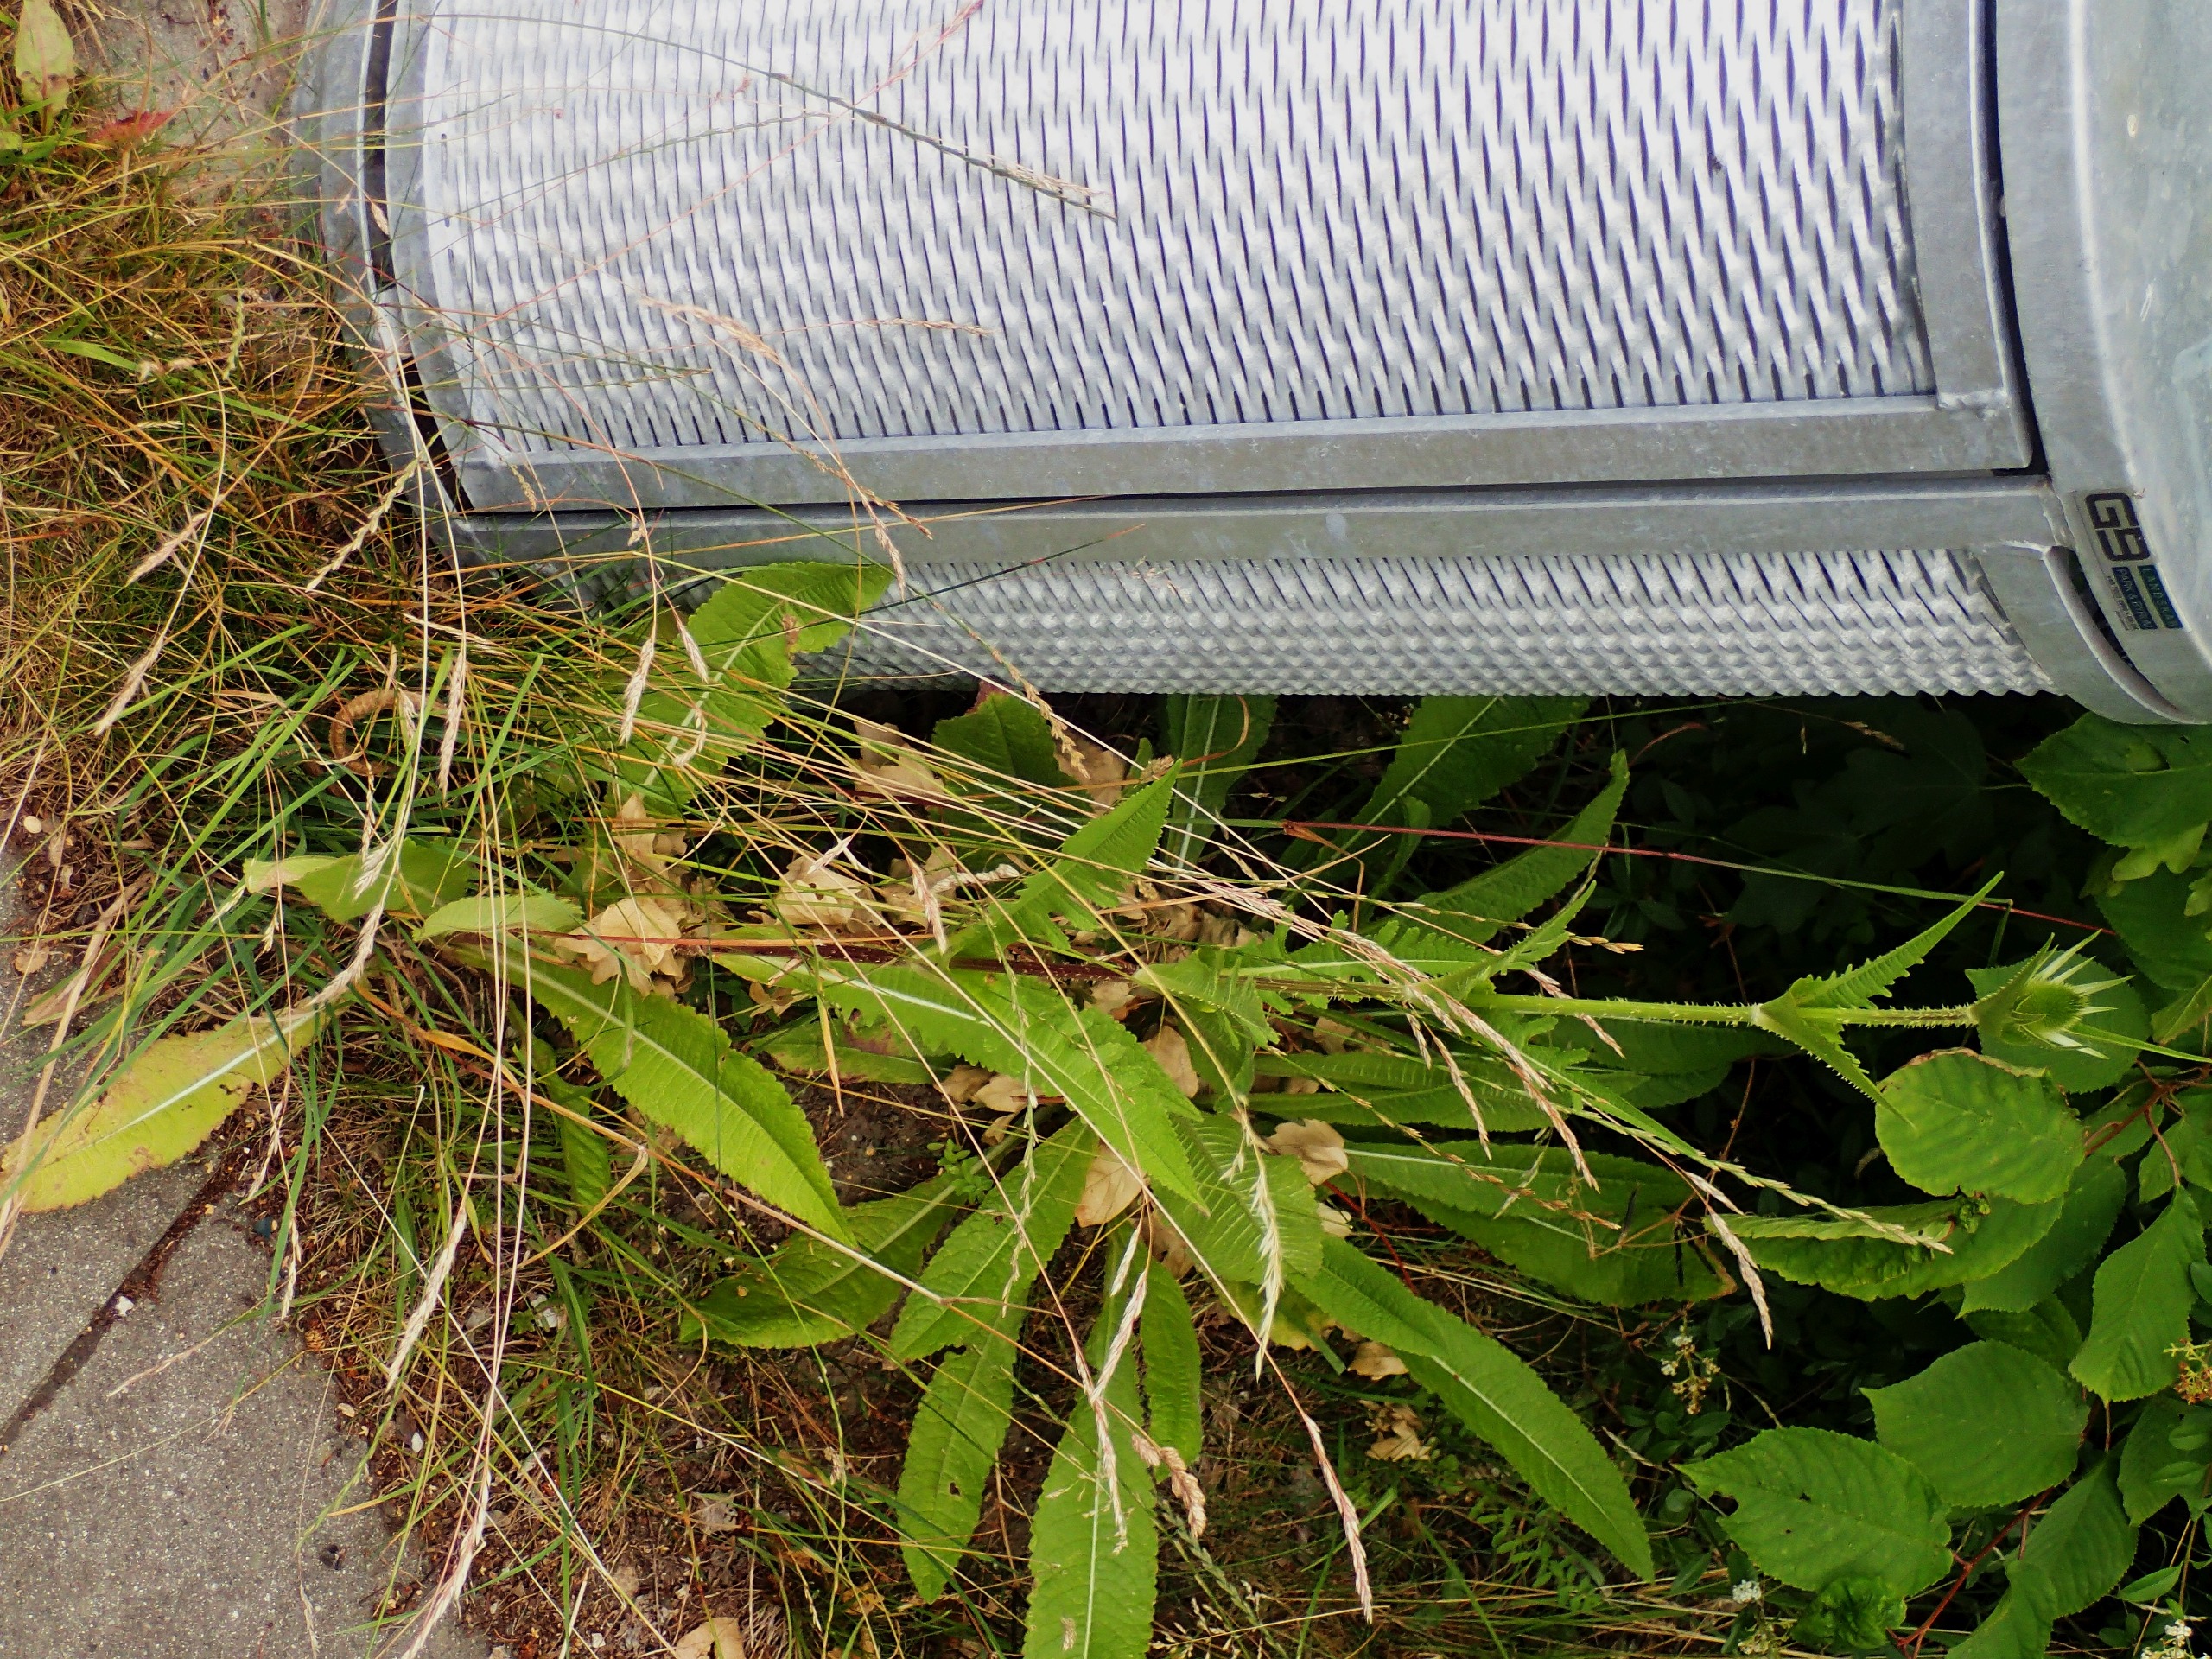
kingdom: Plantae
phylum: Tracheophyta
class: Magnoliopsida
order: Dipsacales
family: Caprifoliaceae
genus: Dipsacus
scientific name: Dipsacus laciniatus
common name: Fliget kartebolle
